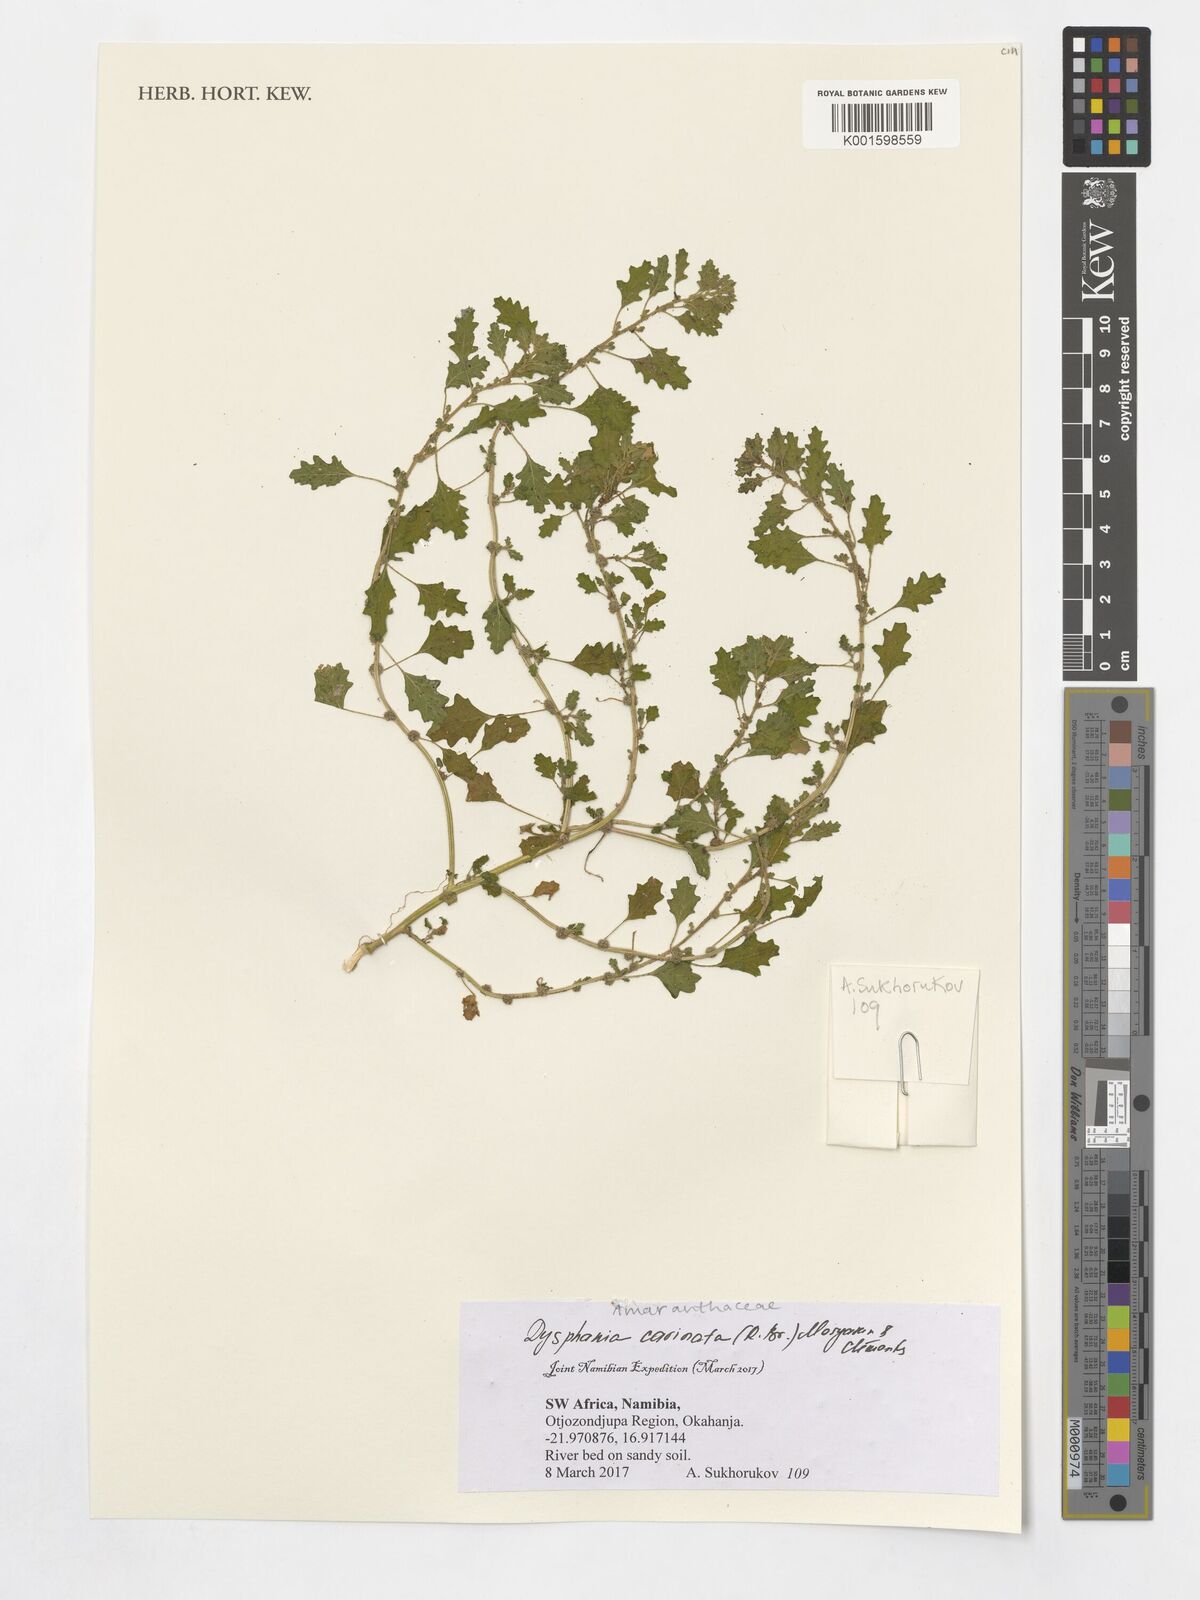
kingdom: Plantae
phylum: Tracheophyta
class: Magnoliopsida
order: Caryophyllales
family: Amaranthaceae
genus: Dysphania
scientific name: Dysphania carinata
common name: Keeled wormseed
